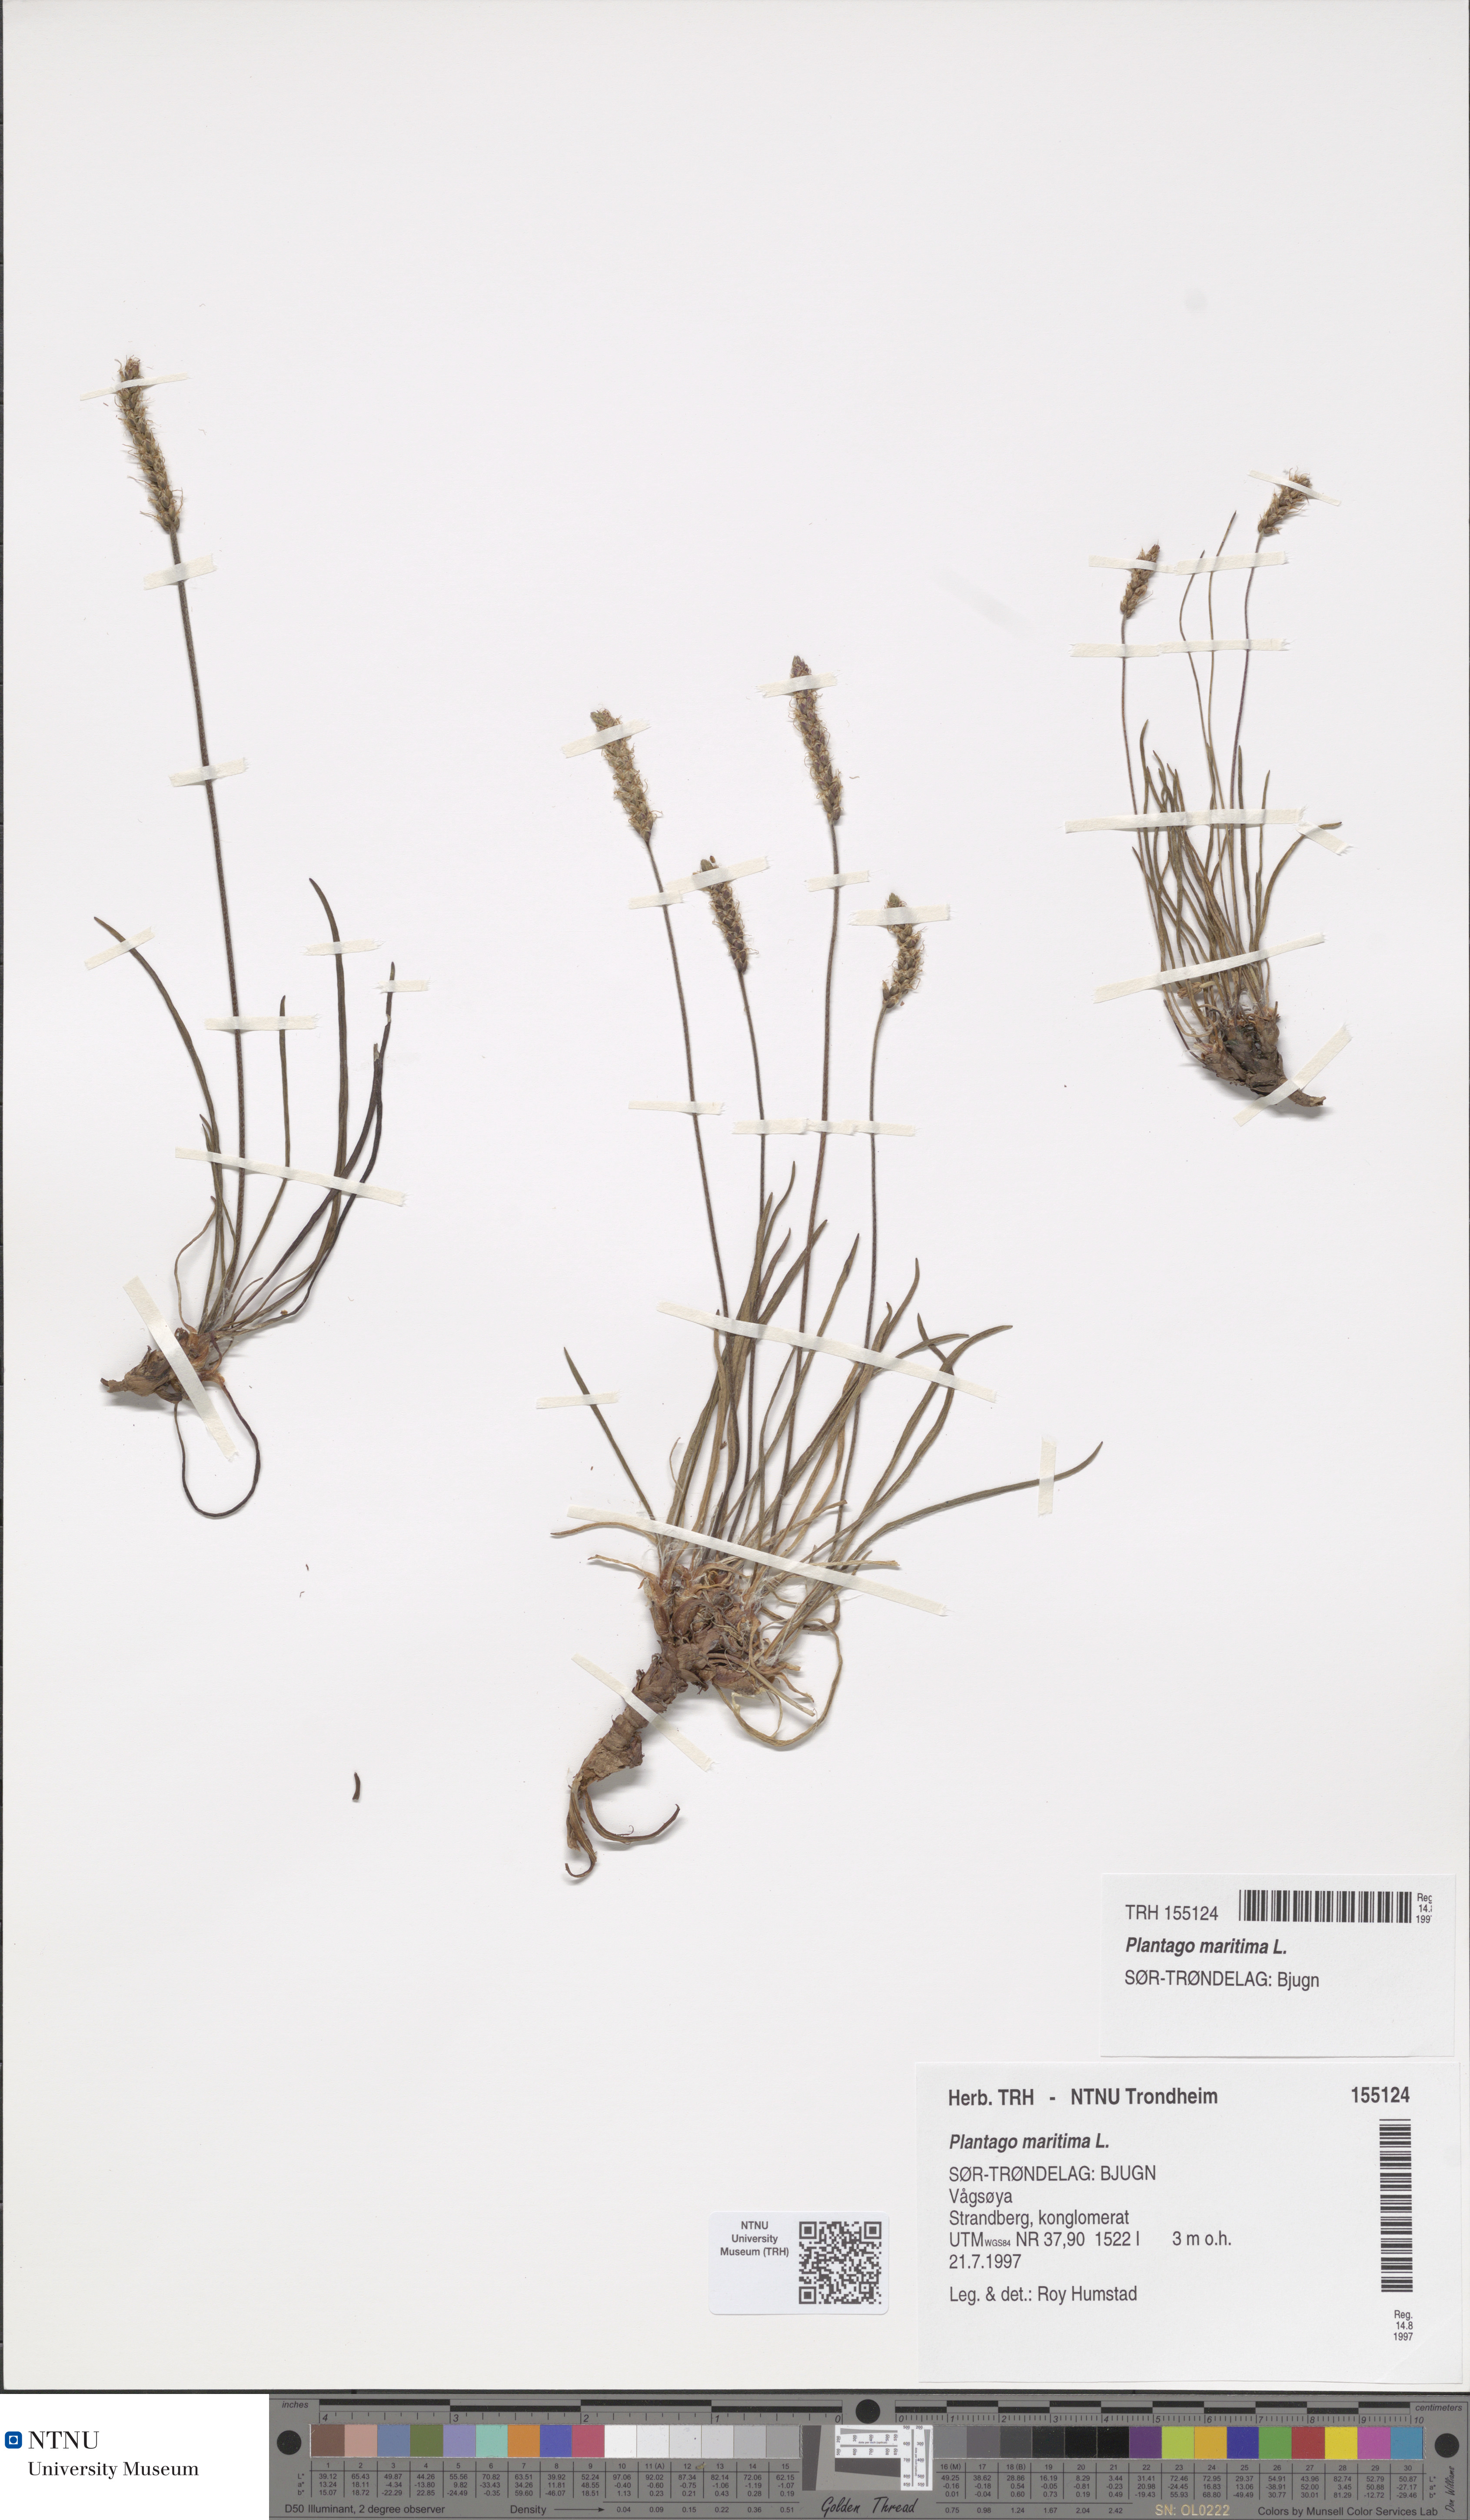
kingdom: Plantae
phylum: Tracheophyta
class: Magnoliopsida
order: Lamiales
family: Plantaginaceae
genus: Plantago
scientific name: Plantago maritima
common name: Sea plantain
